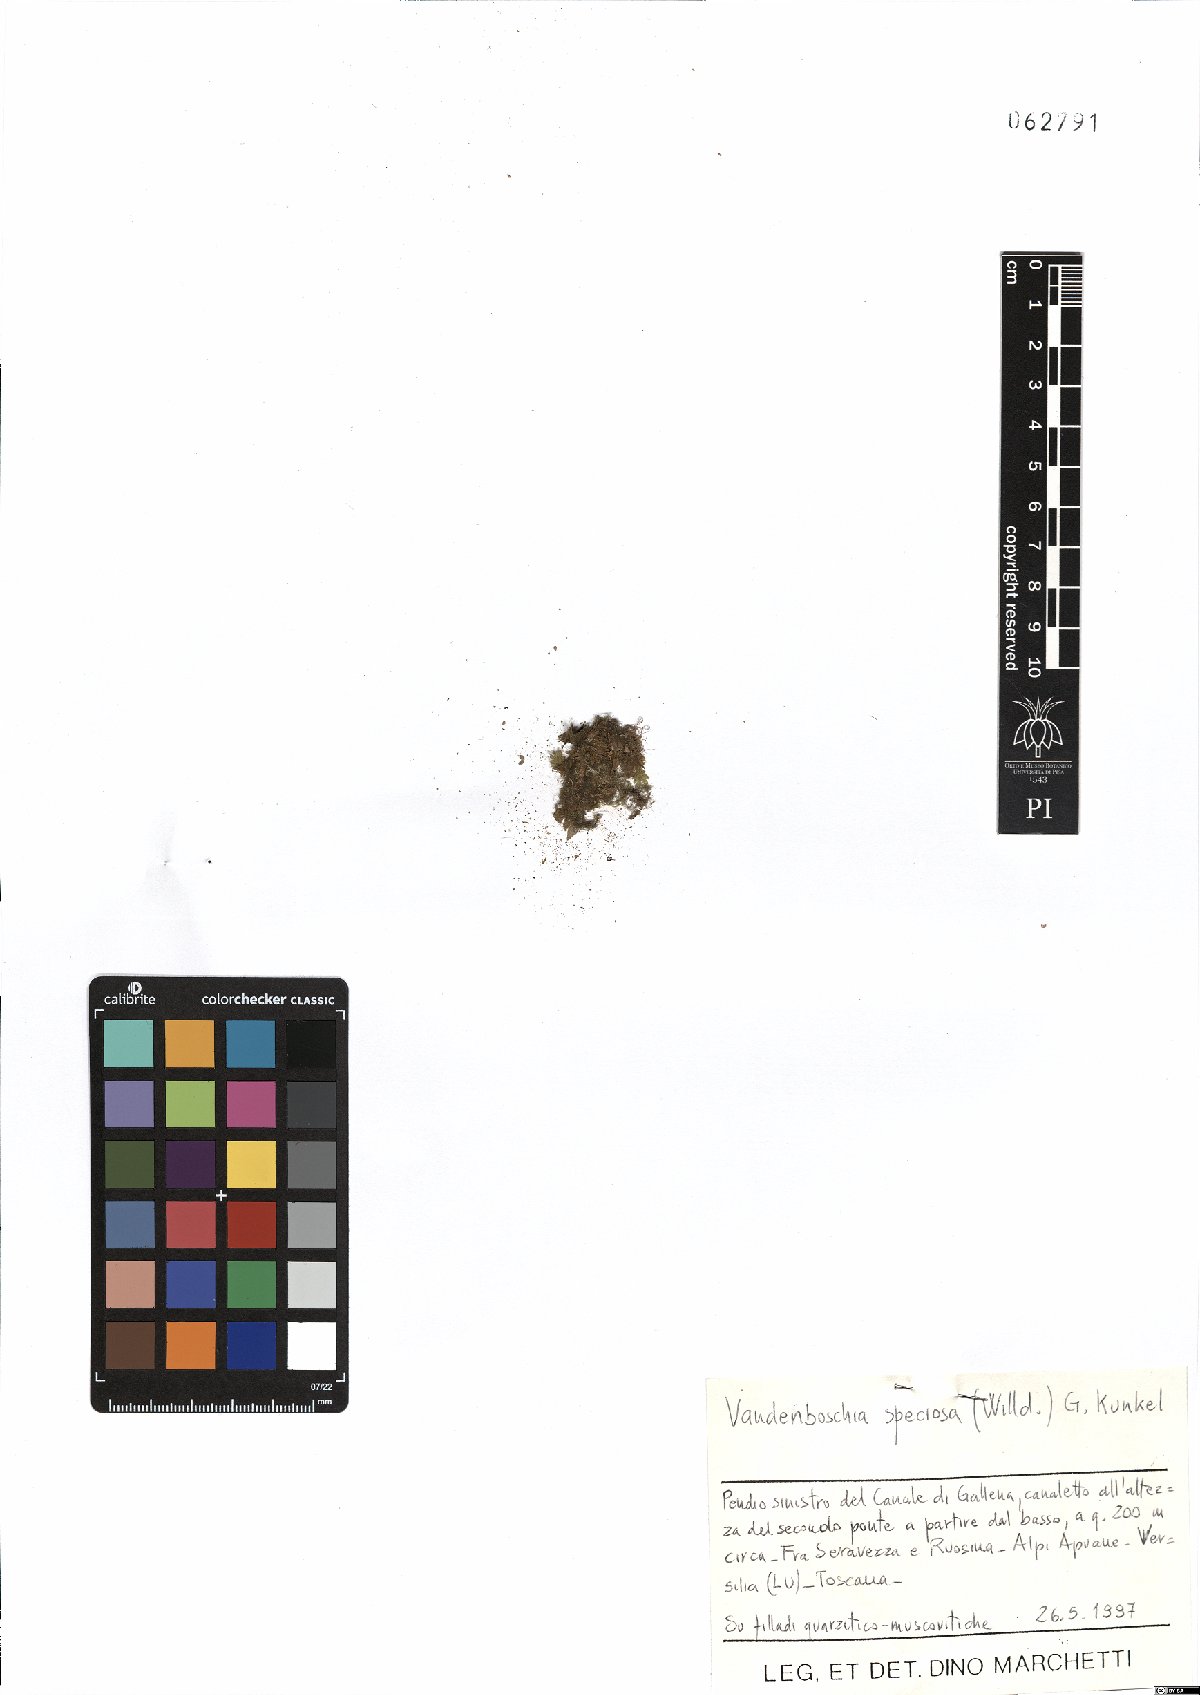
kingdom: Plantae
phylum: Tracheophyta
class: Polypodiopsida
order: Hymenophyllales
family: Hymenophyllaceae
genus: Vandenboschia
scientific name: Vandenboschia speciosa
